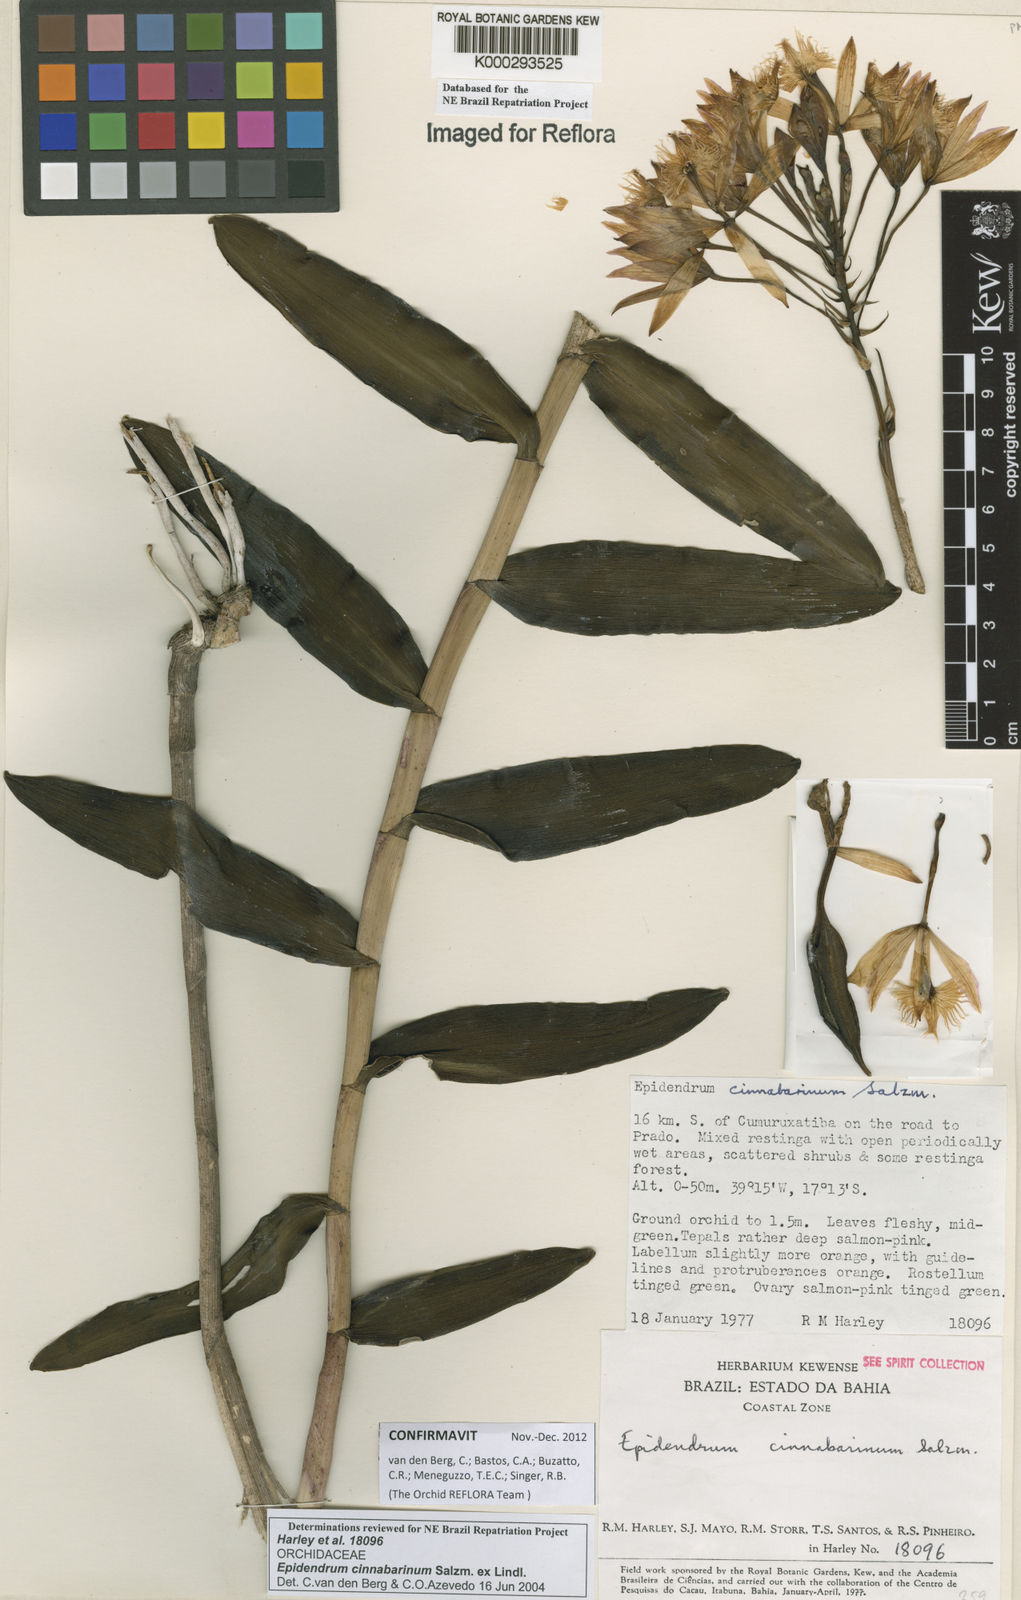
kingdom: Plantae
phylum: Tracheophyta
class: Liliopsida
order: Asparagales
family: Orchidaceae
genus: Epidendrum
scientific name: Epidendrum cinnabarinum
